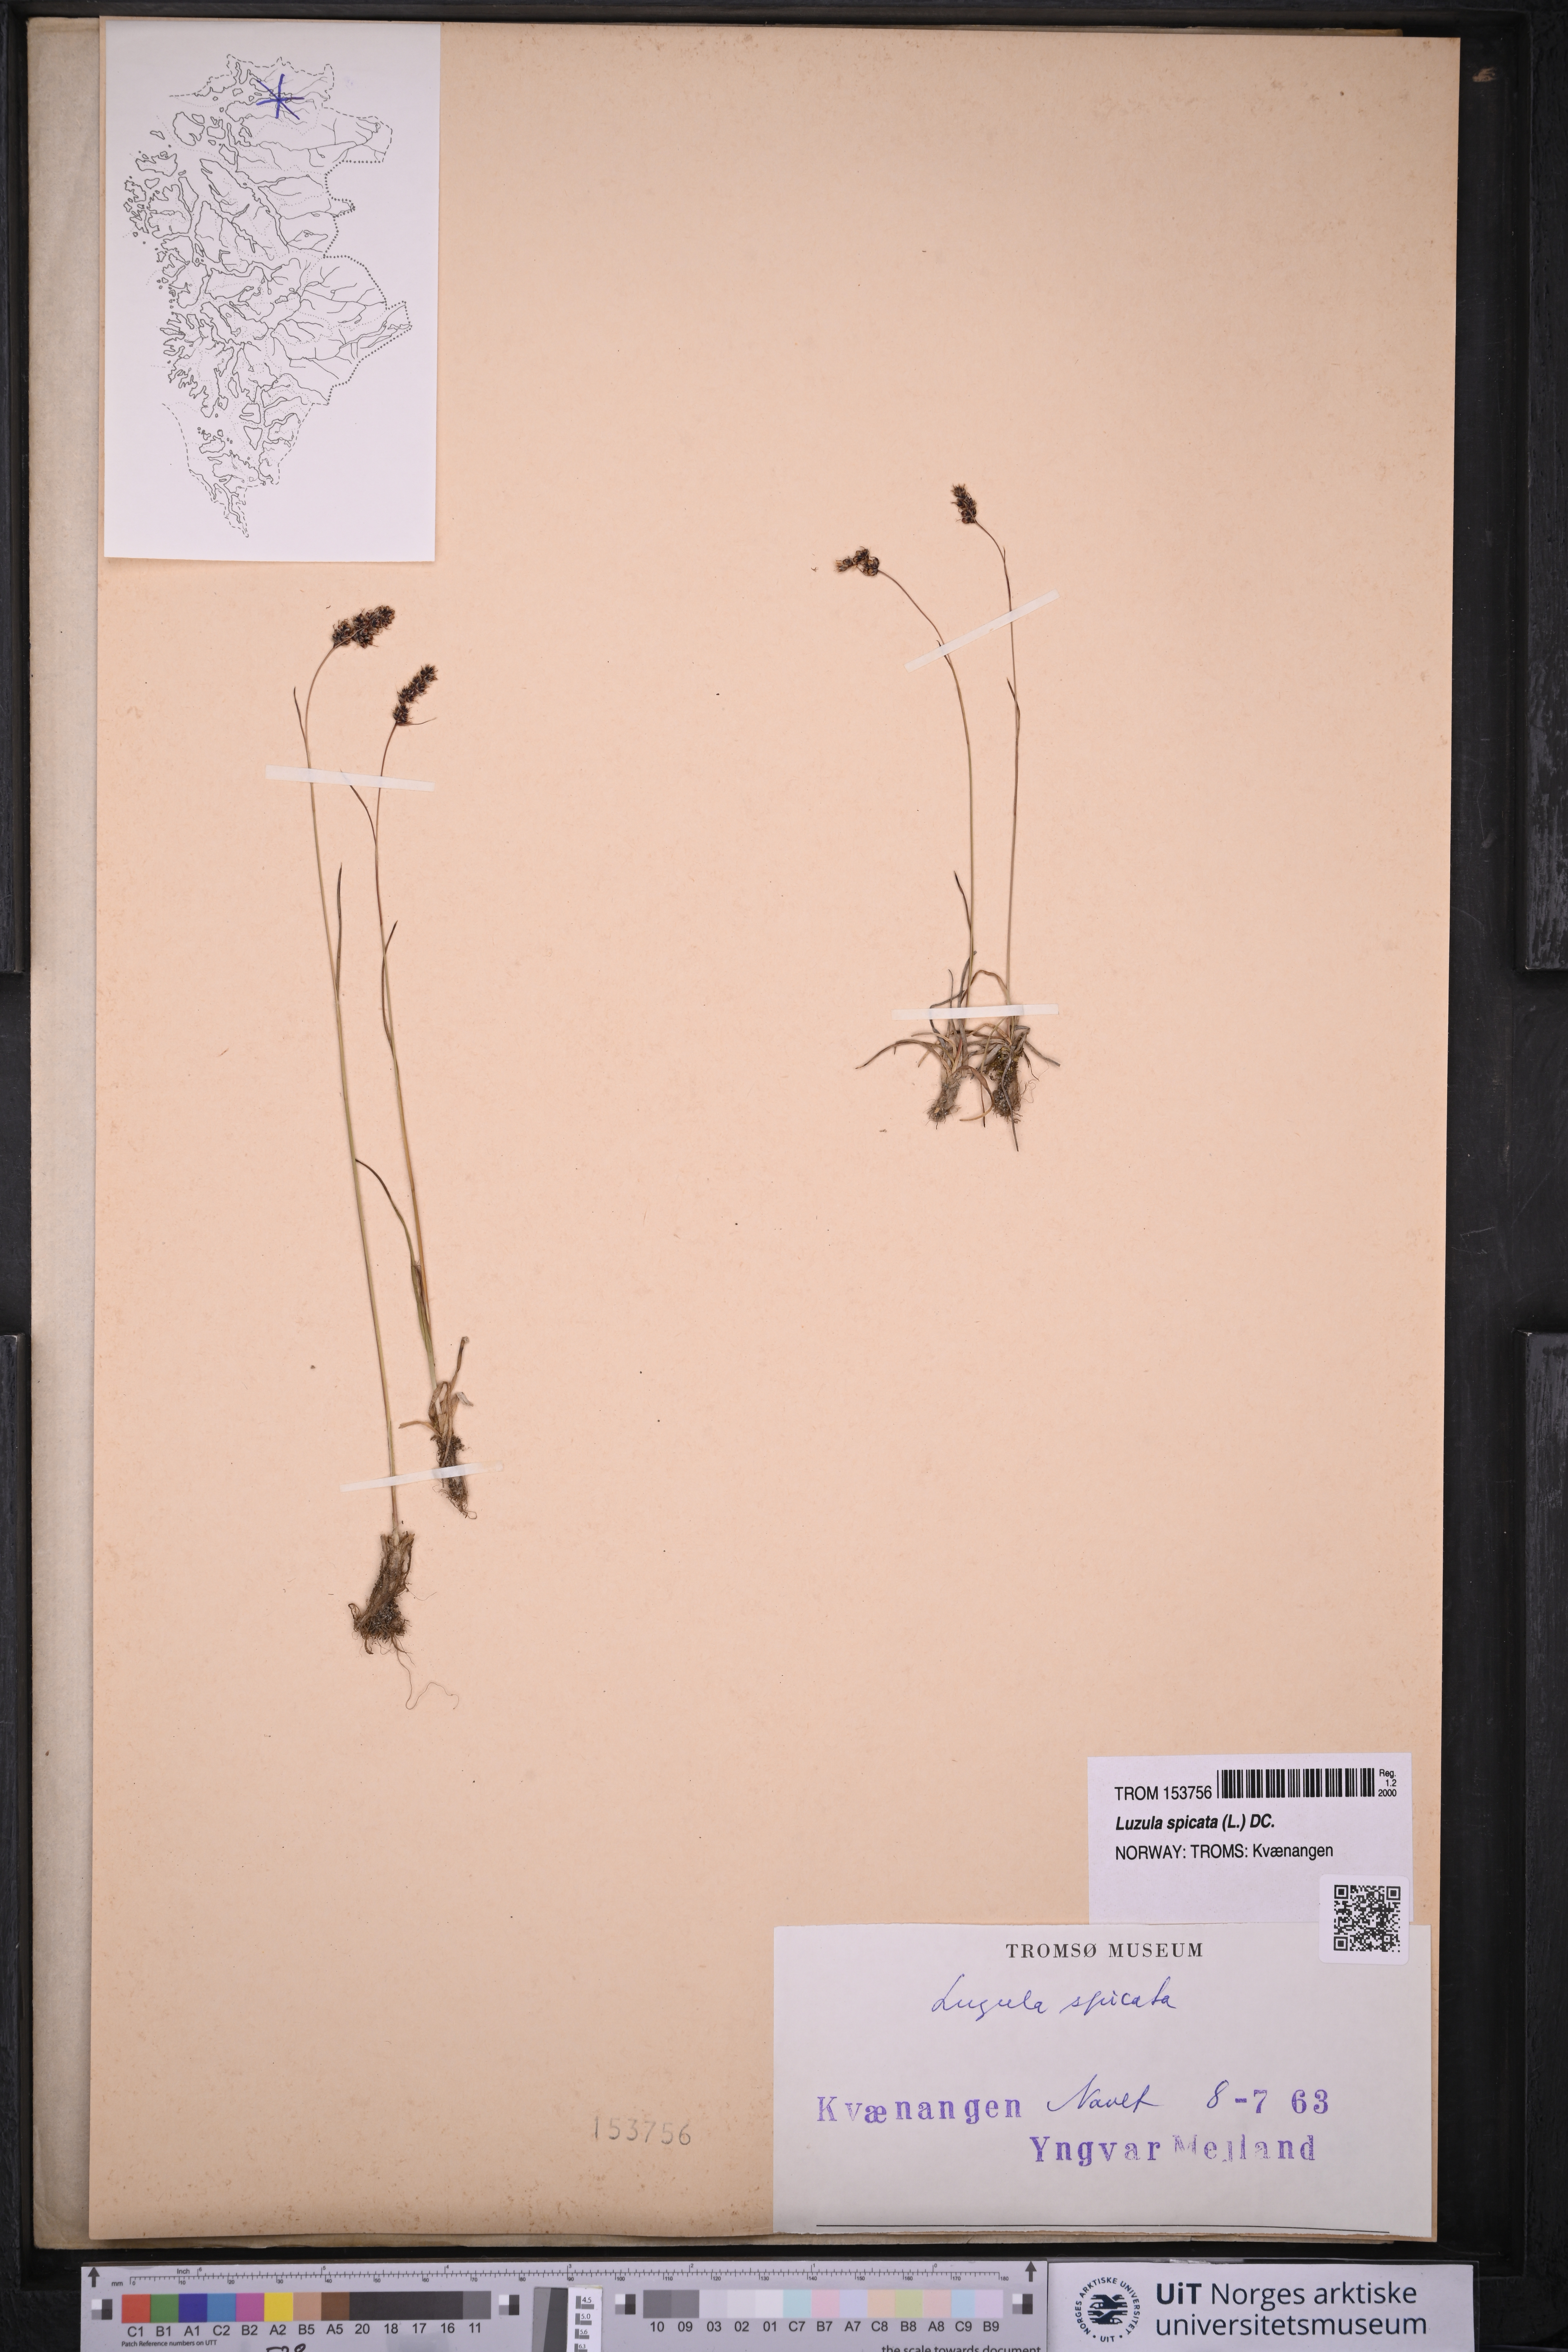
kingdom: Plantae
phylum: Tracheophyta
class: Liliopsida
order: Poales
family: Juncaceae
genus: Luzula
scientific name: Luzula spicata
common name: Spiked wood-rush
